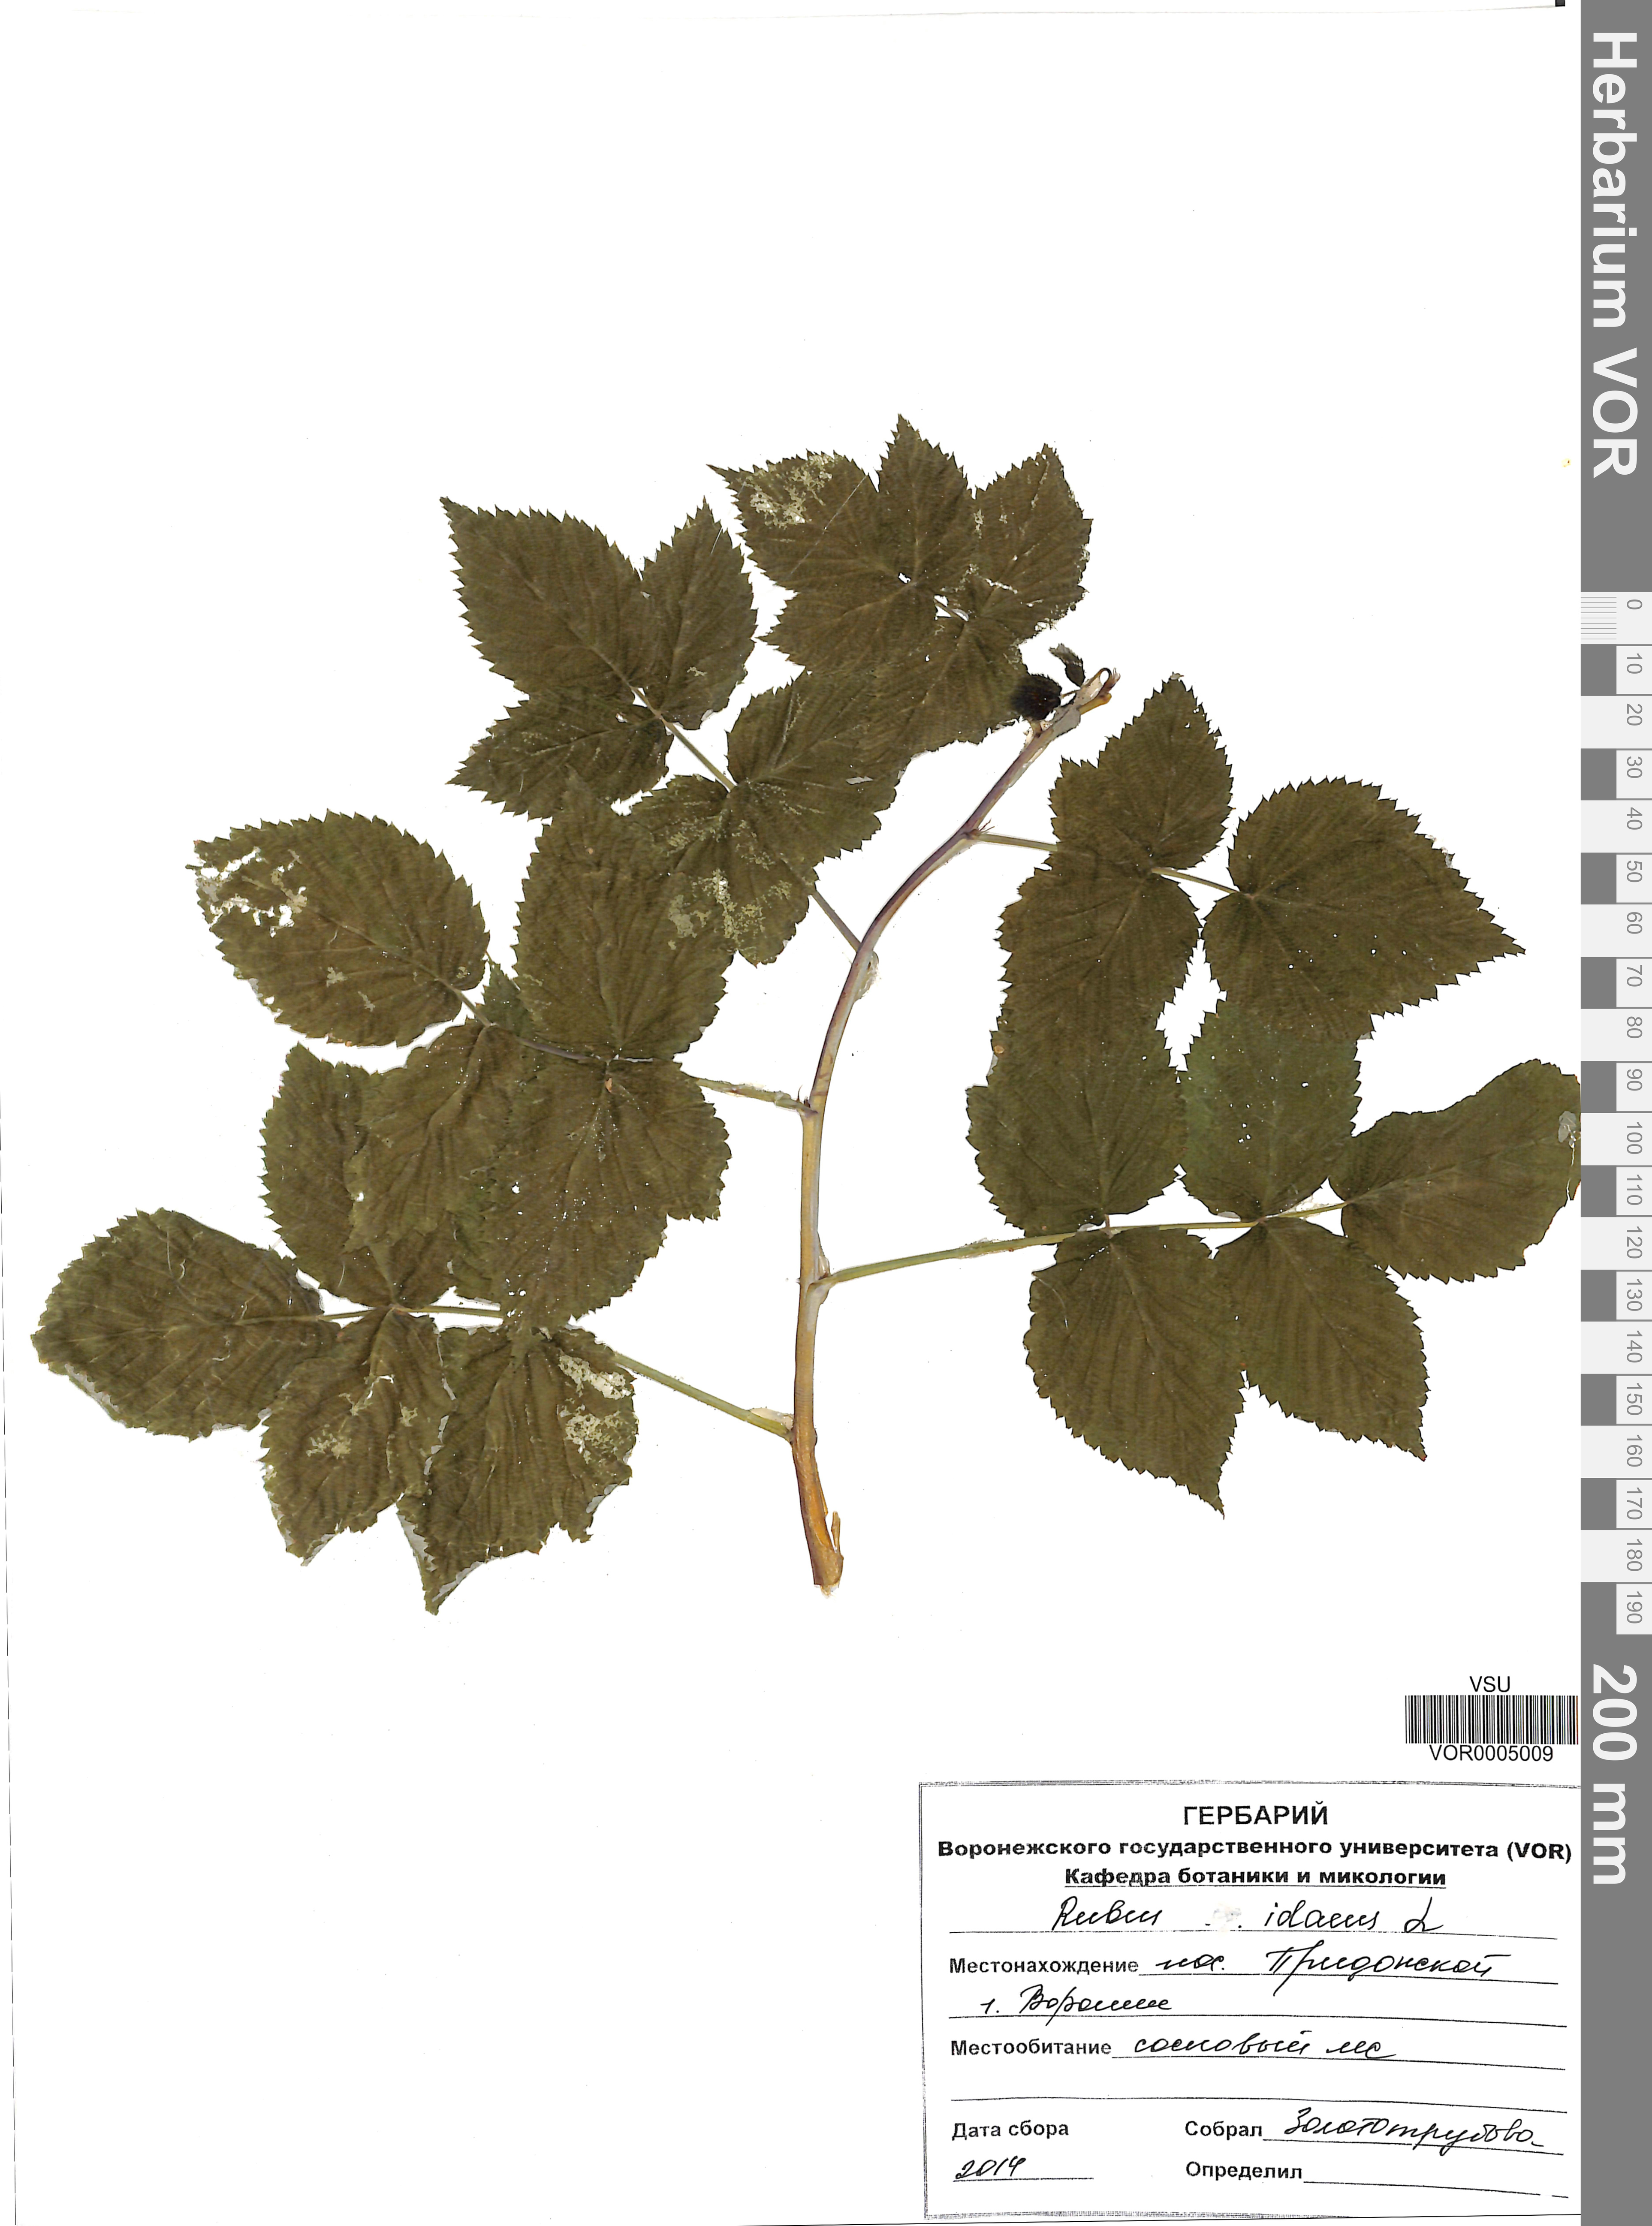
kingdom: Plantae
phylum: Tracheophyta
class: Magnoliopsida
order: Rosales
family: Rosaceae
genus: Rubus
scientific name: Rubus idaeus
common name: Raspberry
